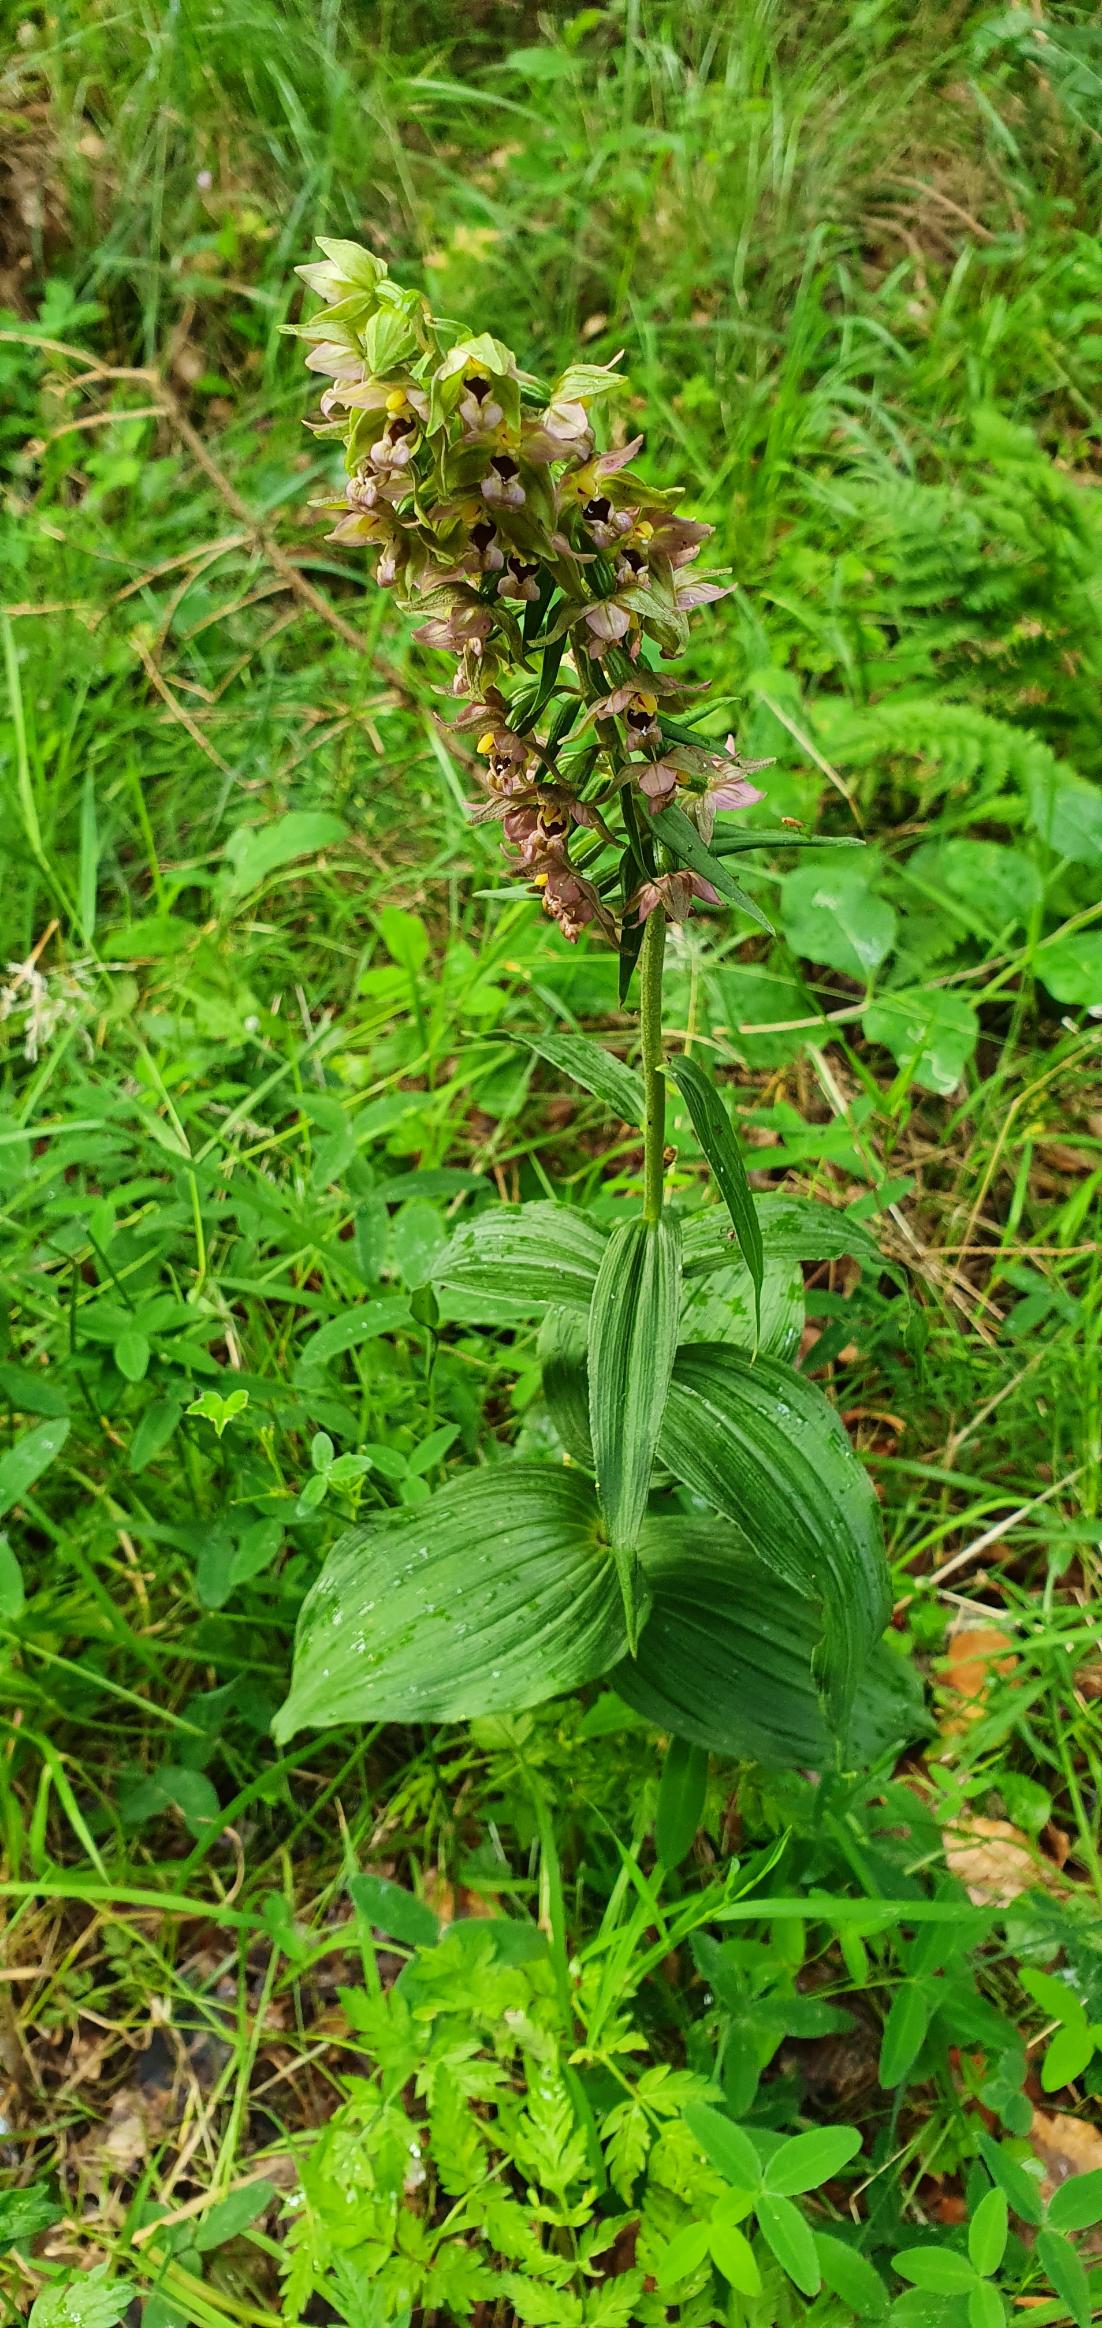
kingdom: Plantae
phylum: Tracheophyta
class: Liliopsida
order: Asparagales
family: Orchidaceae
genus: Epipactis
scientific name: Epipactis helleborine
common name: Skov-hullæbe
